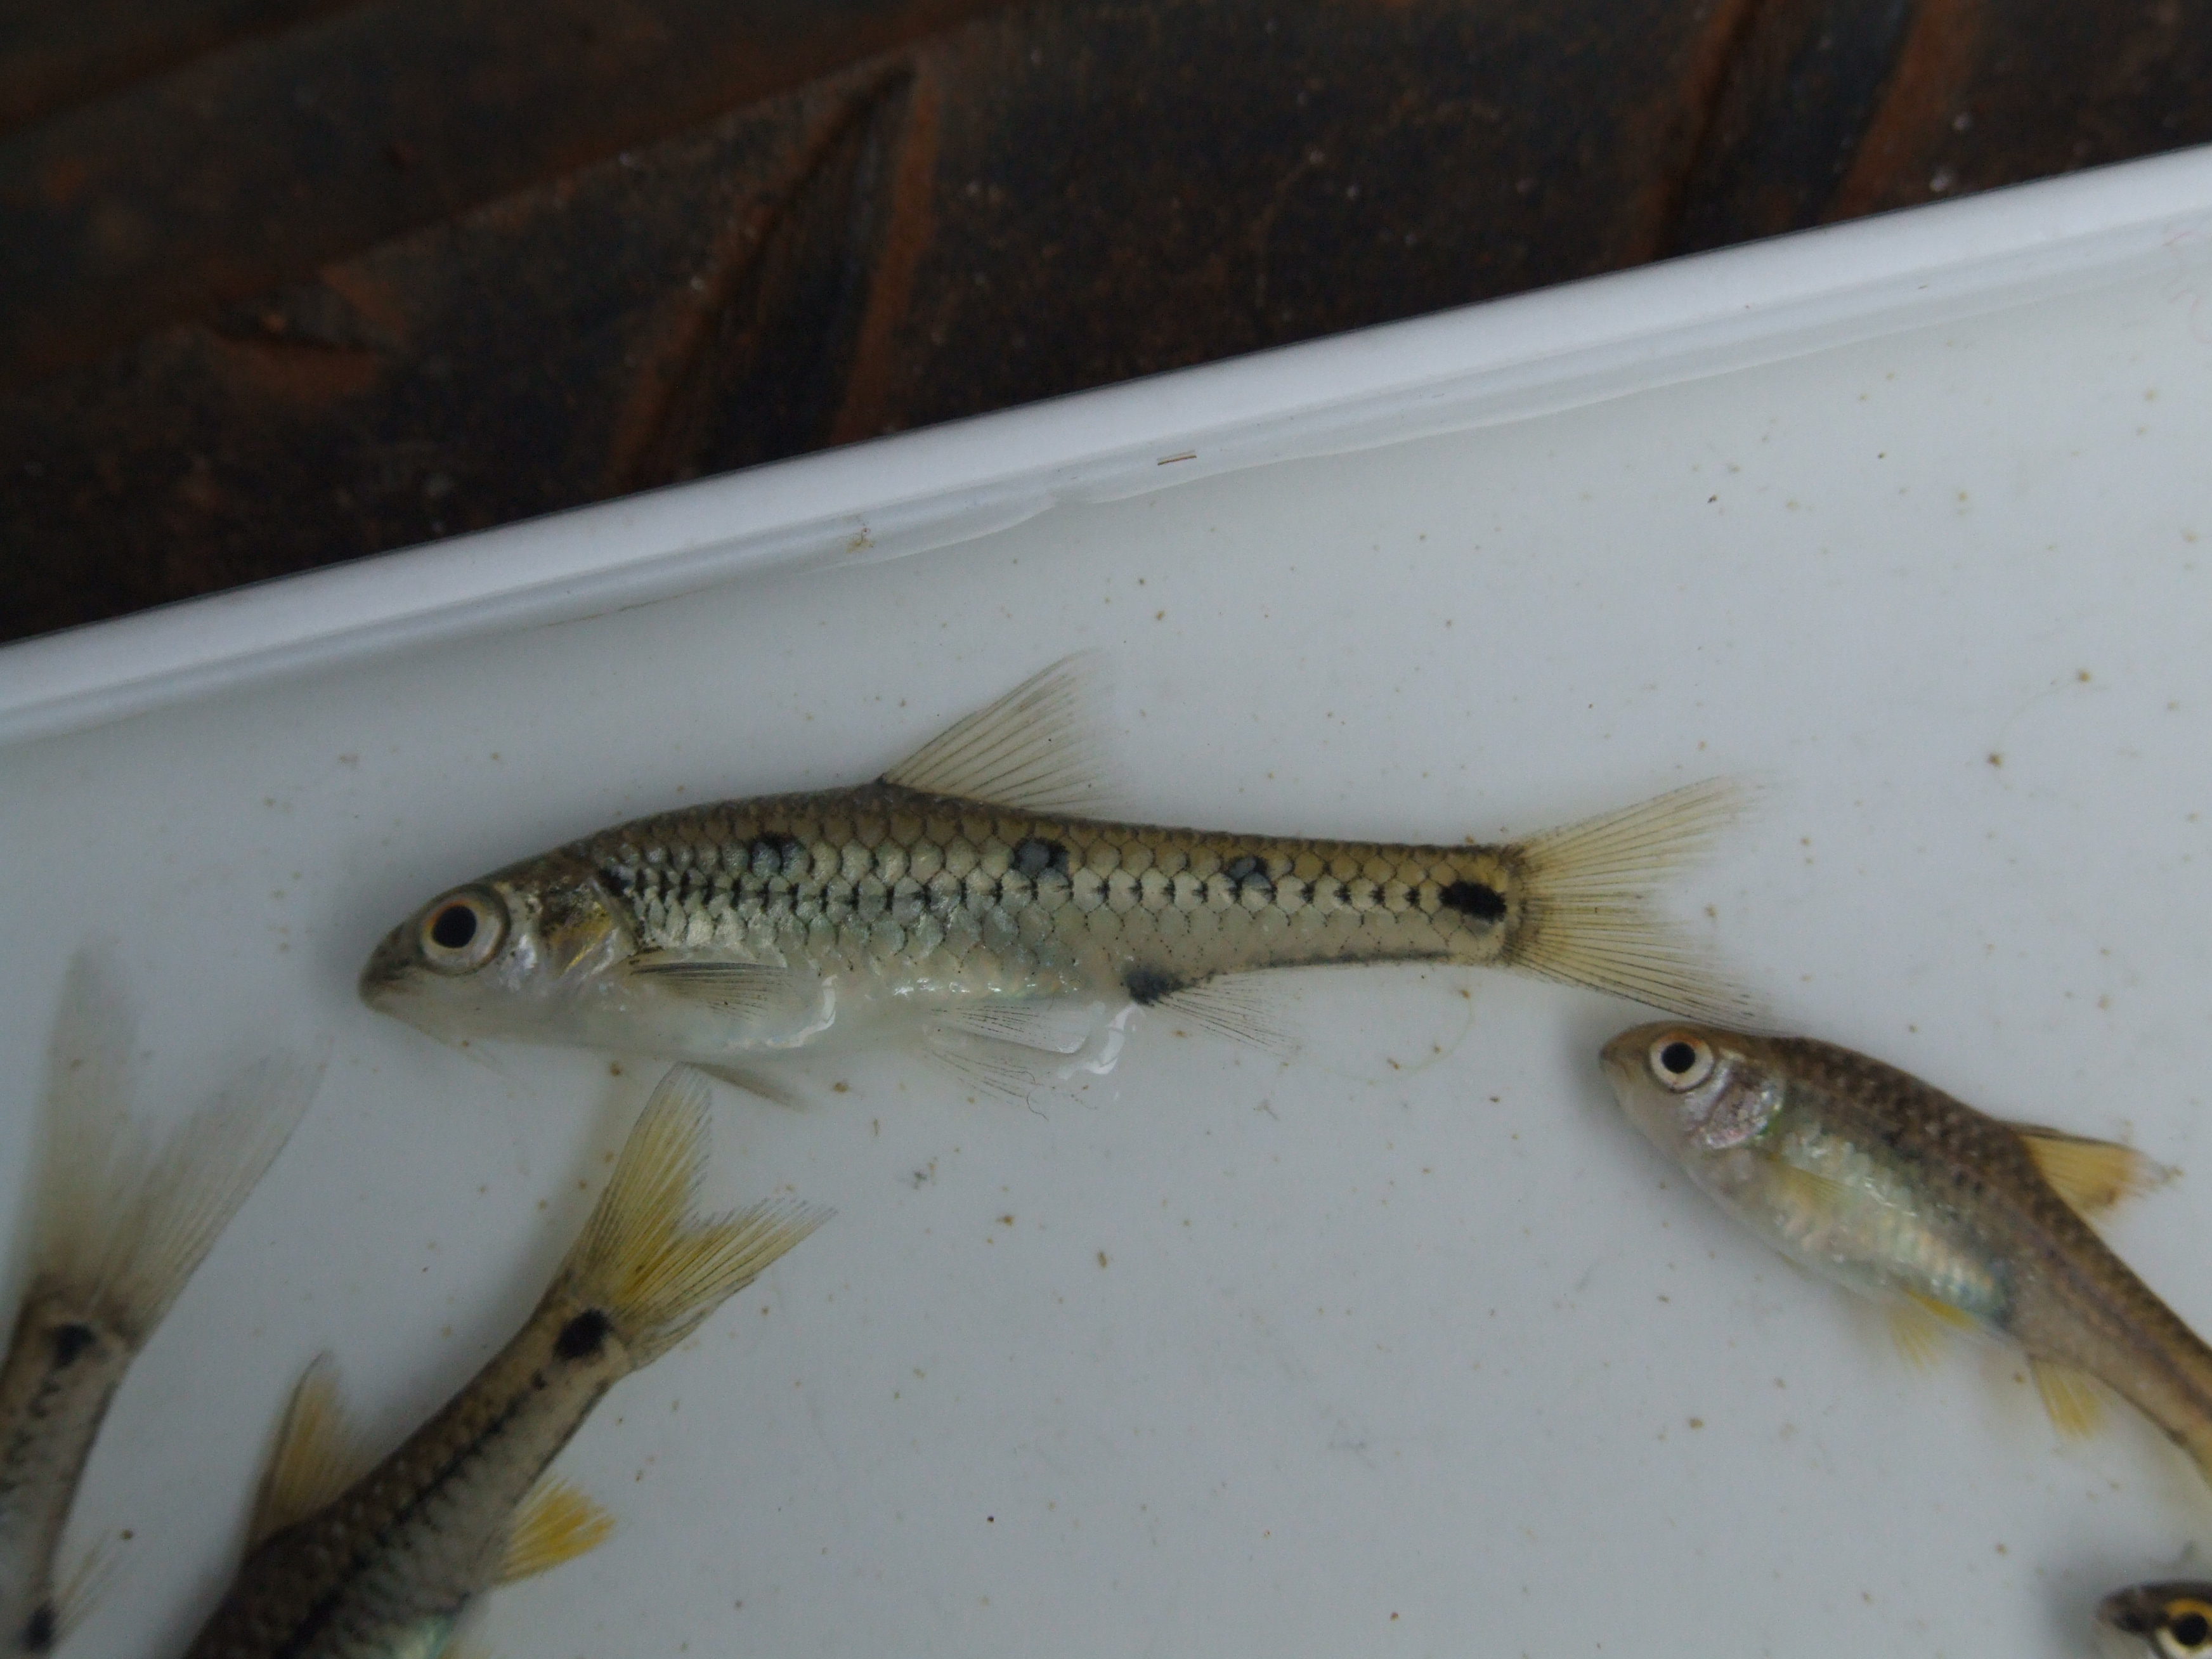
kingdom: Animalia
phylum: Chordata
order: Cypriniformes
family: Cyprinidae
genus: Enteromius
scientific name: Enteromius lineomaculatus
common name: Line-spotted barb
